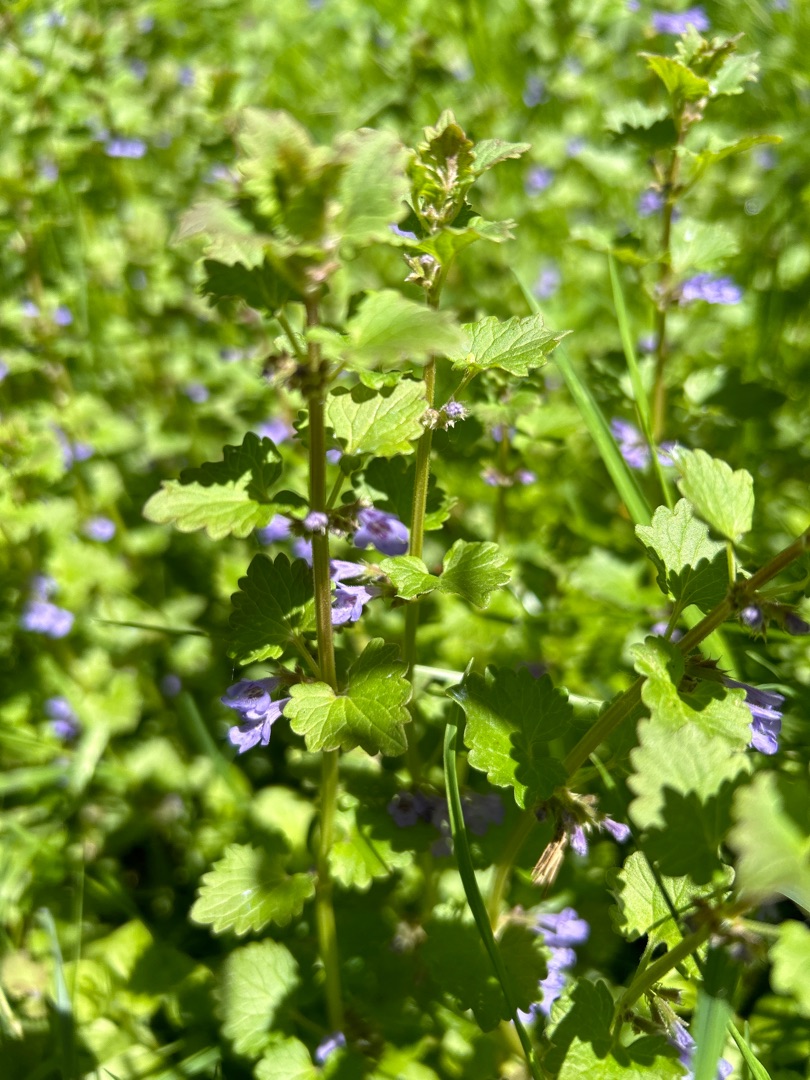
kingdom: Plantae
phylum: Tracheophyta
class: Magnoliopsida
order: Lamiales
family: Lamiaceae
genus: Glechoma
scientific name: Glechoma hederacea
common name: Korsknap
